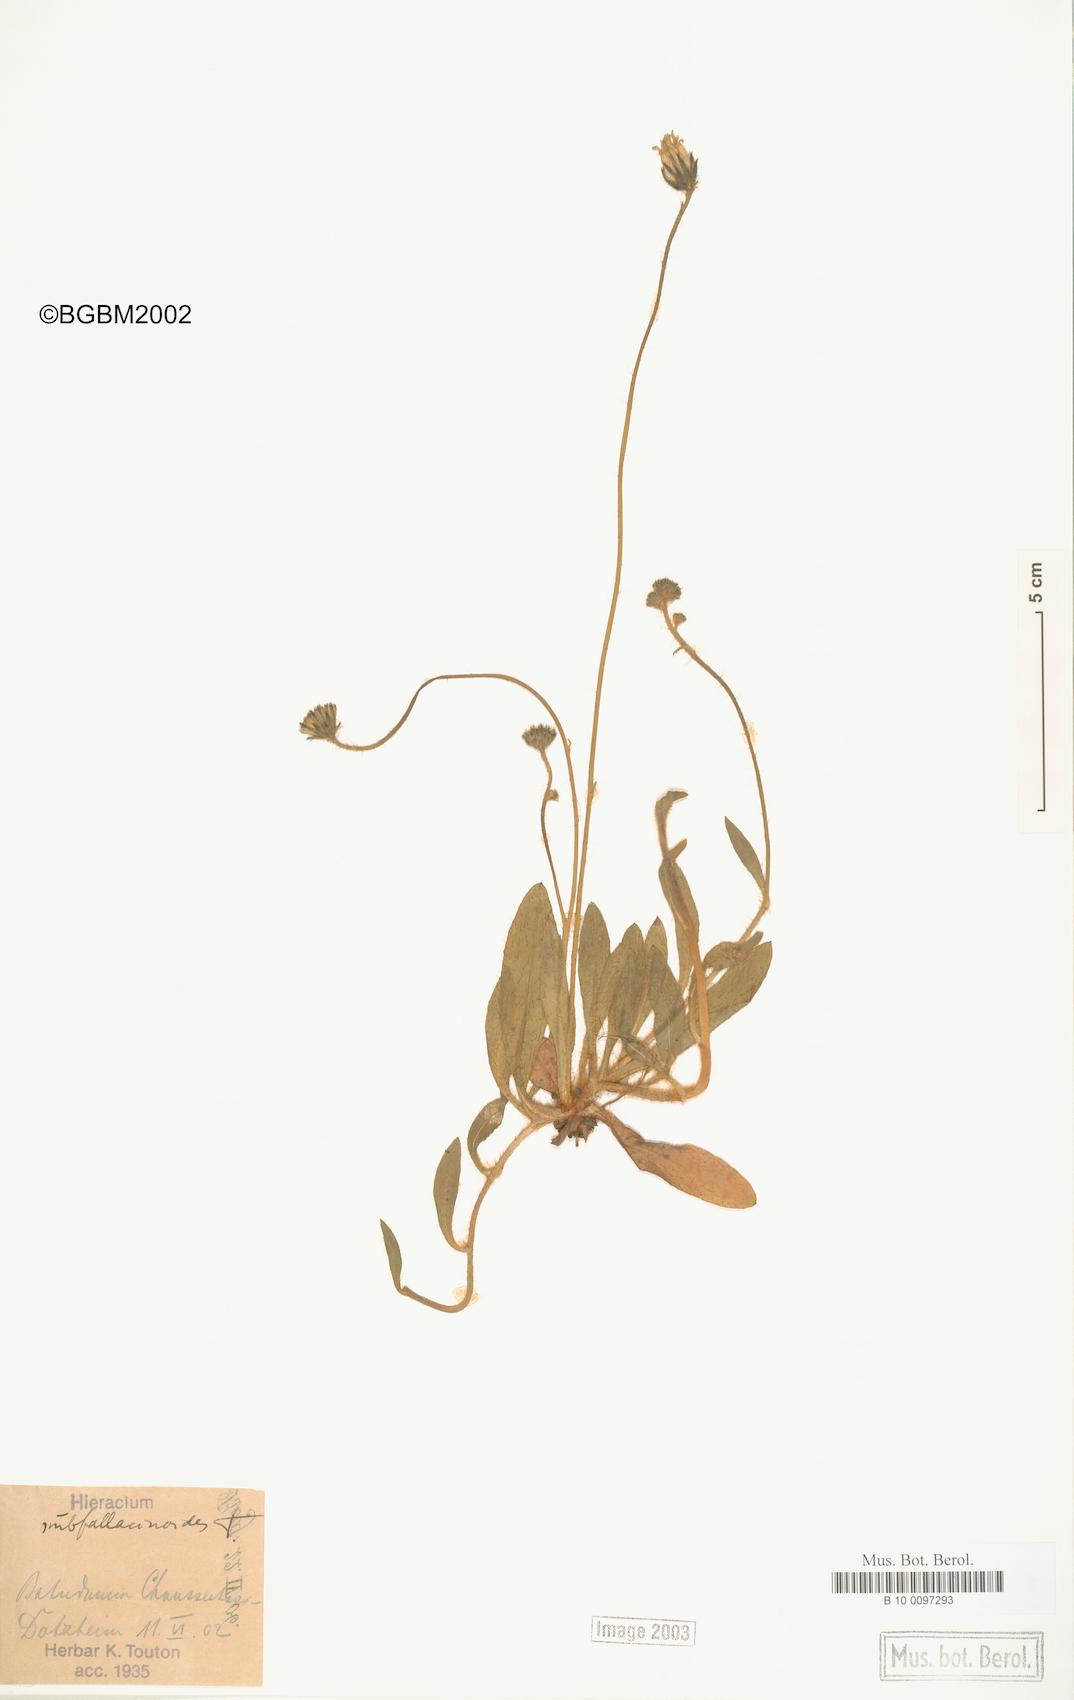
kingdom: Plantae
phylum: Tracheophyta
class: Magnoliopsida
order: Asterales
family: Asteraceae
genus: Pilosella
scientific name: Pilosella acutifolia
